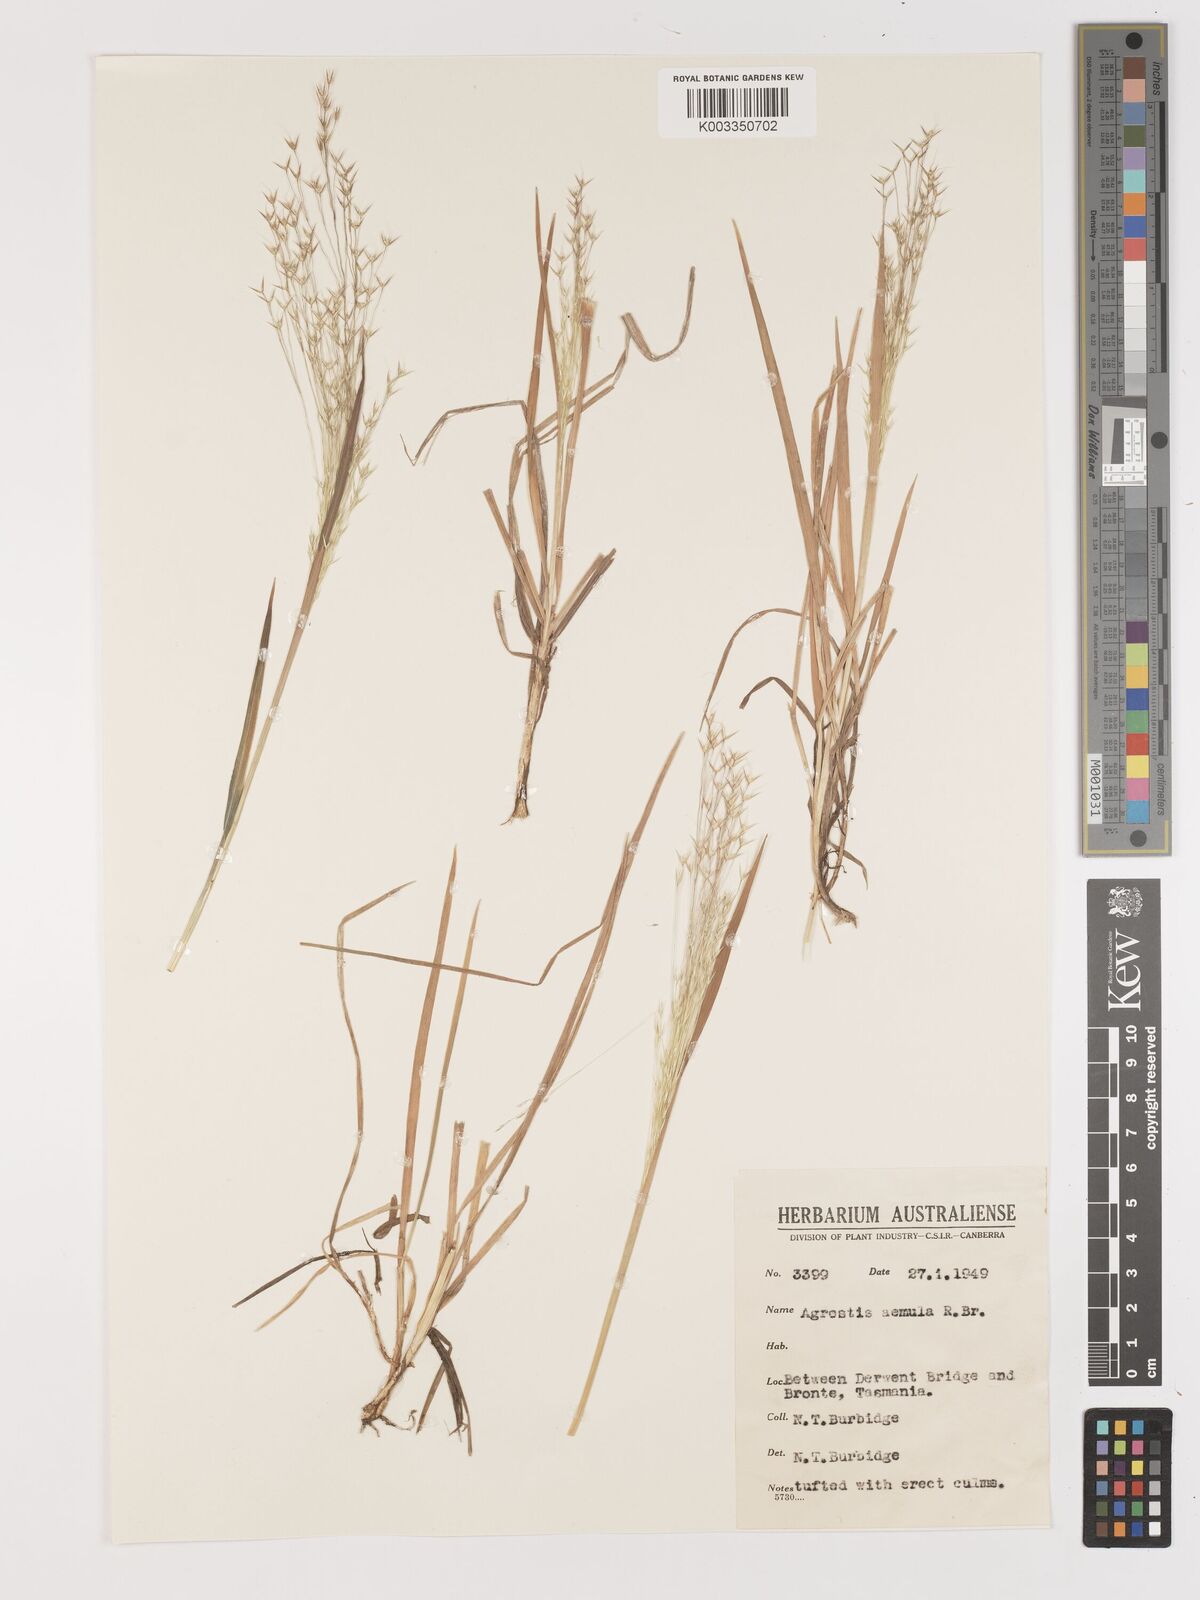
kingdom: Plantae
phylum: Tracheophyta
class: Liliopsida
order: Poales
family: Poaceae
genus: Lachnagrostis
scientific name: Lachnagrostis aemula
